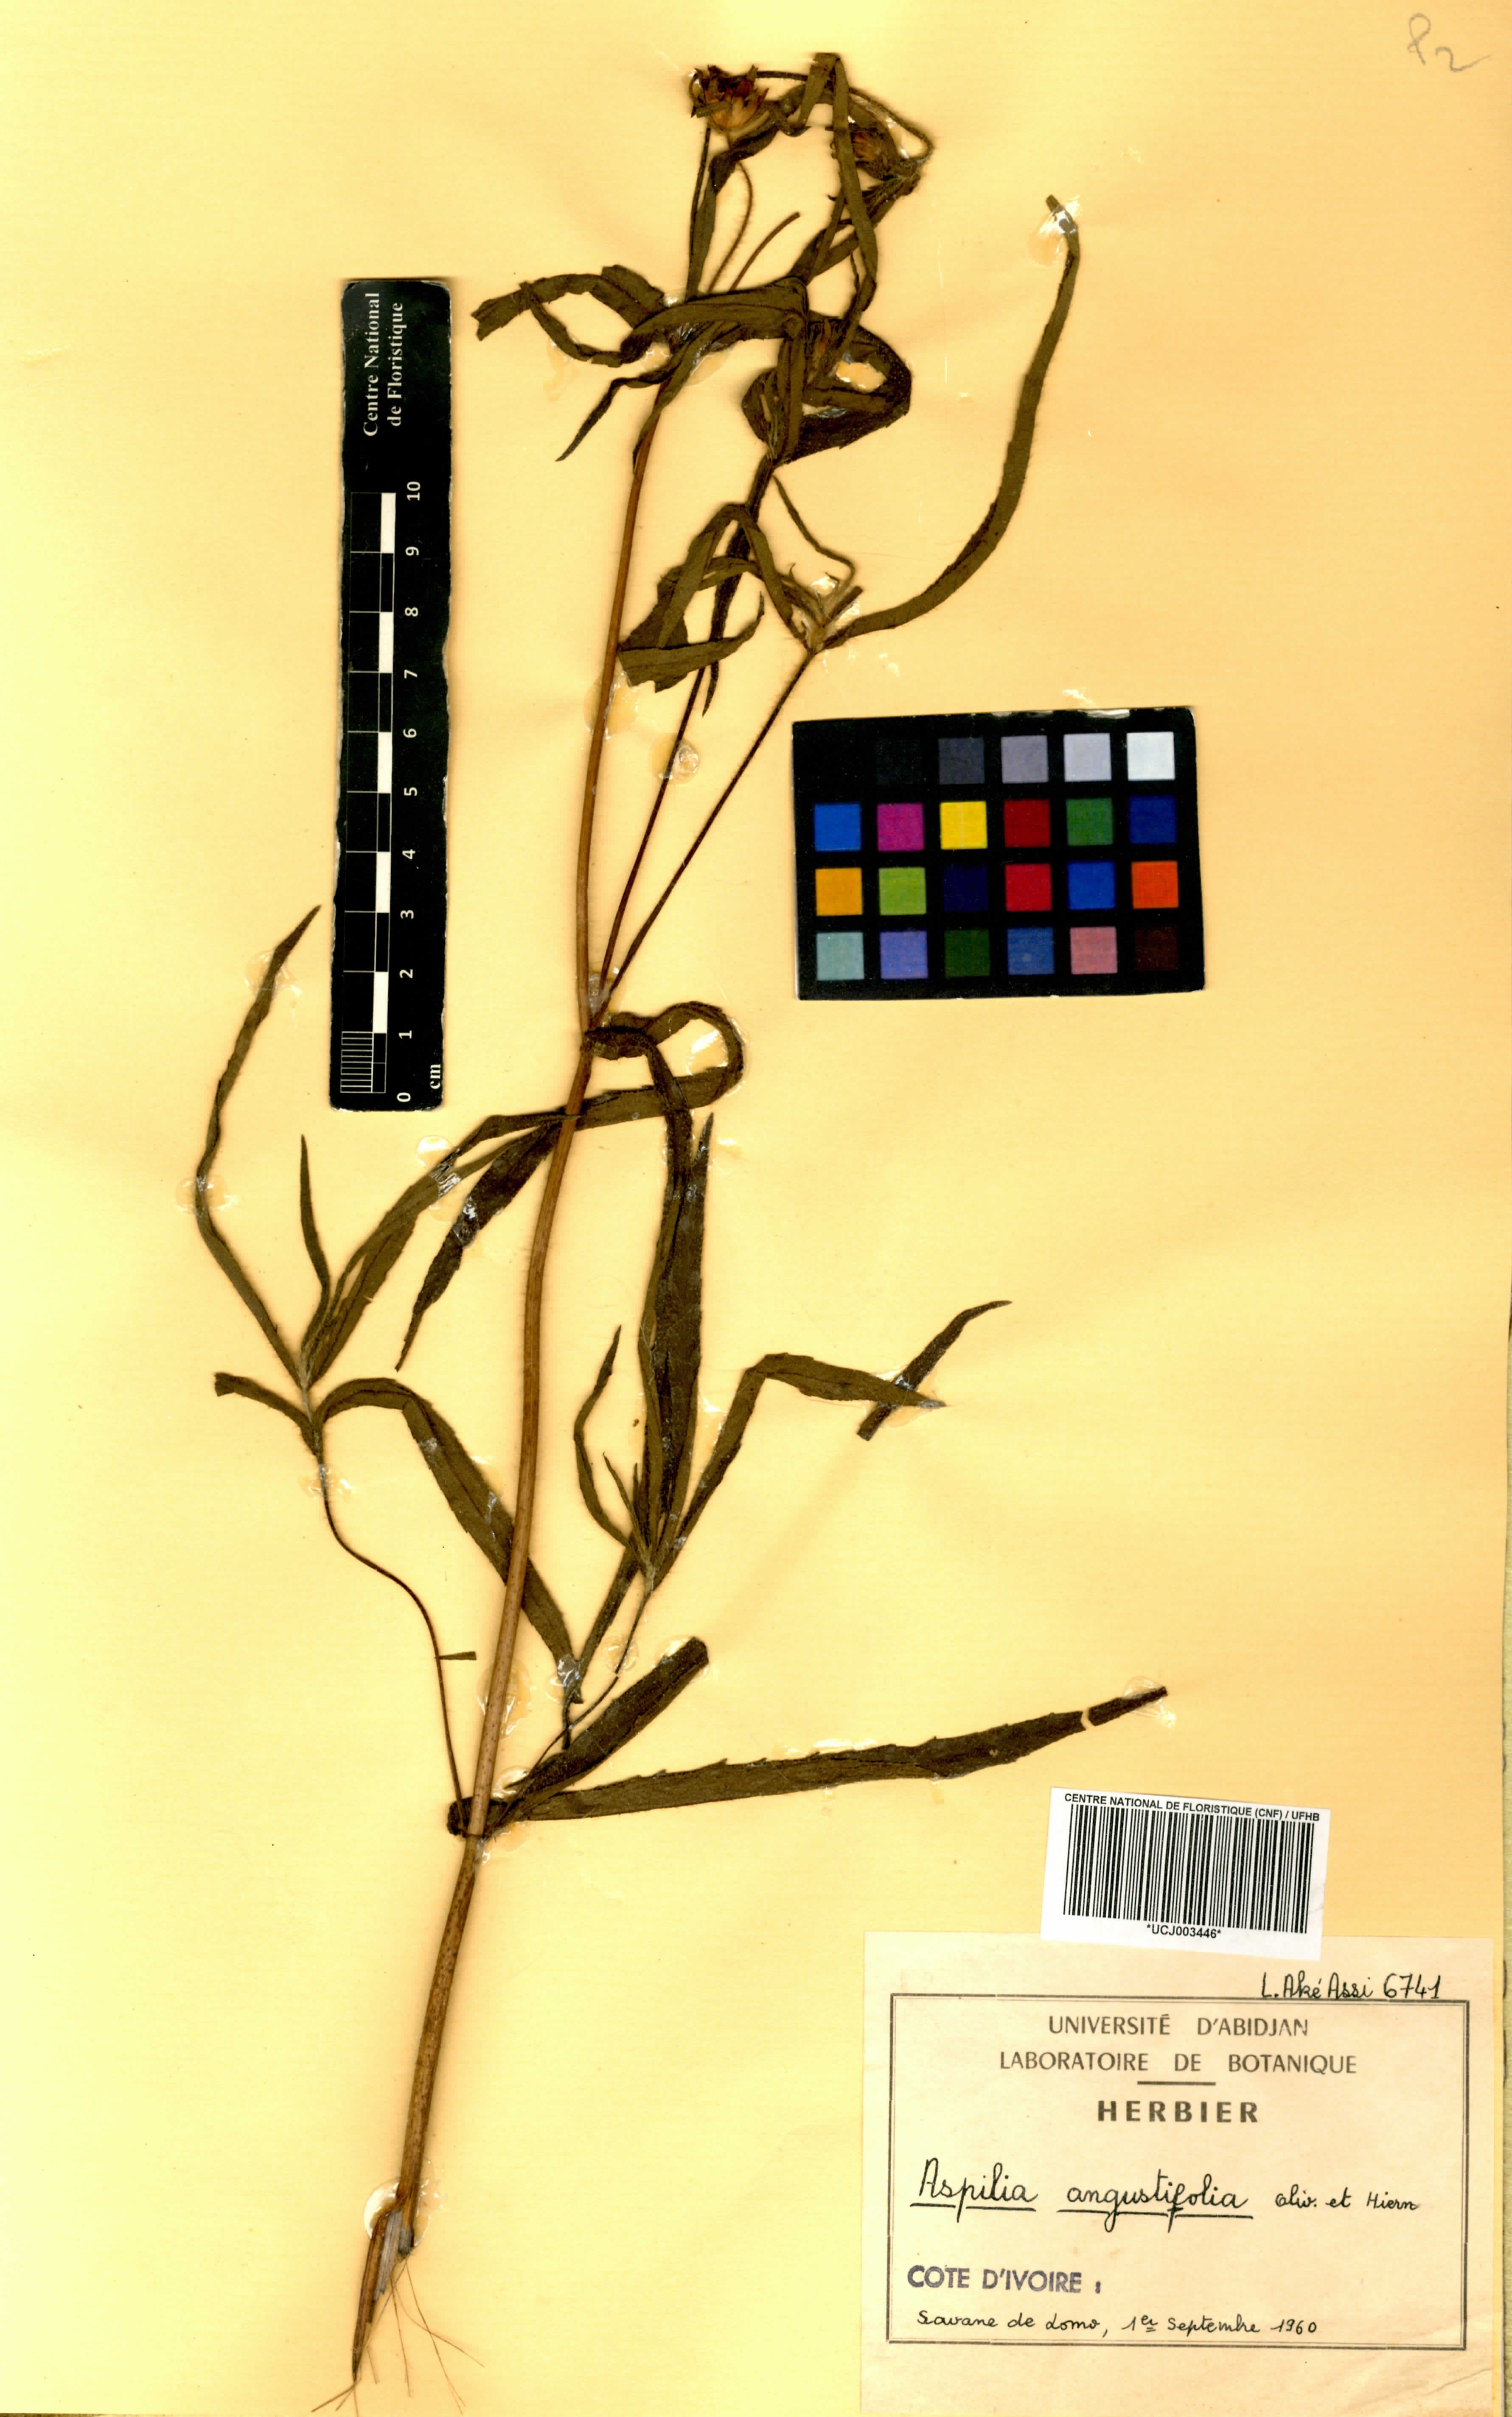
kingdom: Plantae
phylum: Tracheophyta
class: Magnoliopsida
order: Asterales
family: Asteraceae
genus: Aspilia
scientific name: Aspilia angustifolia
